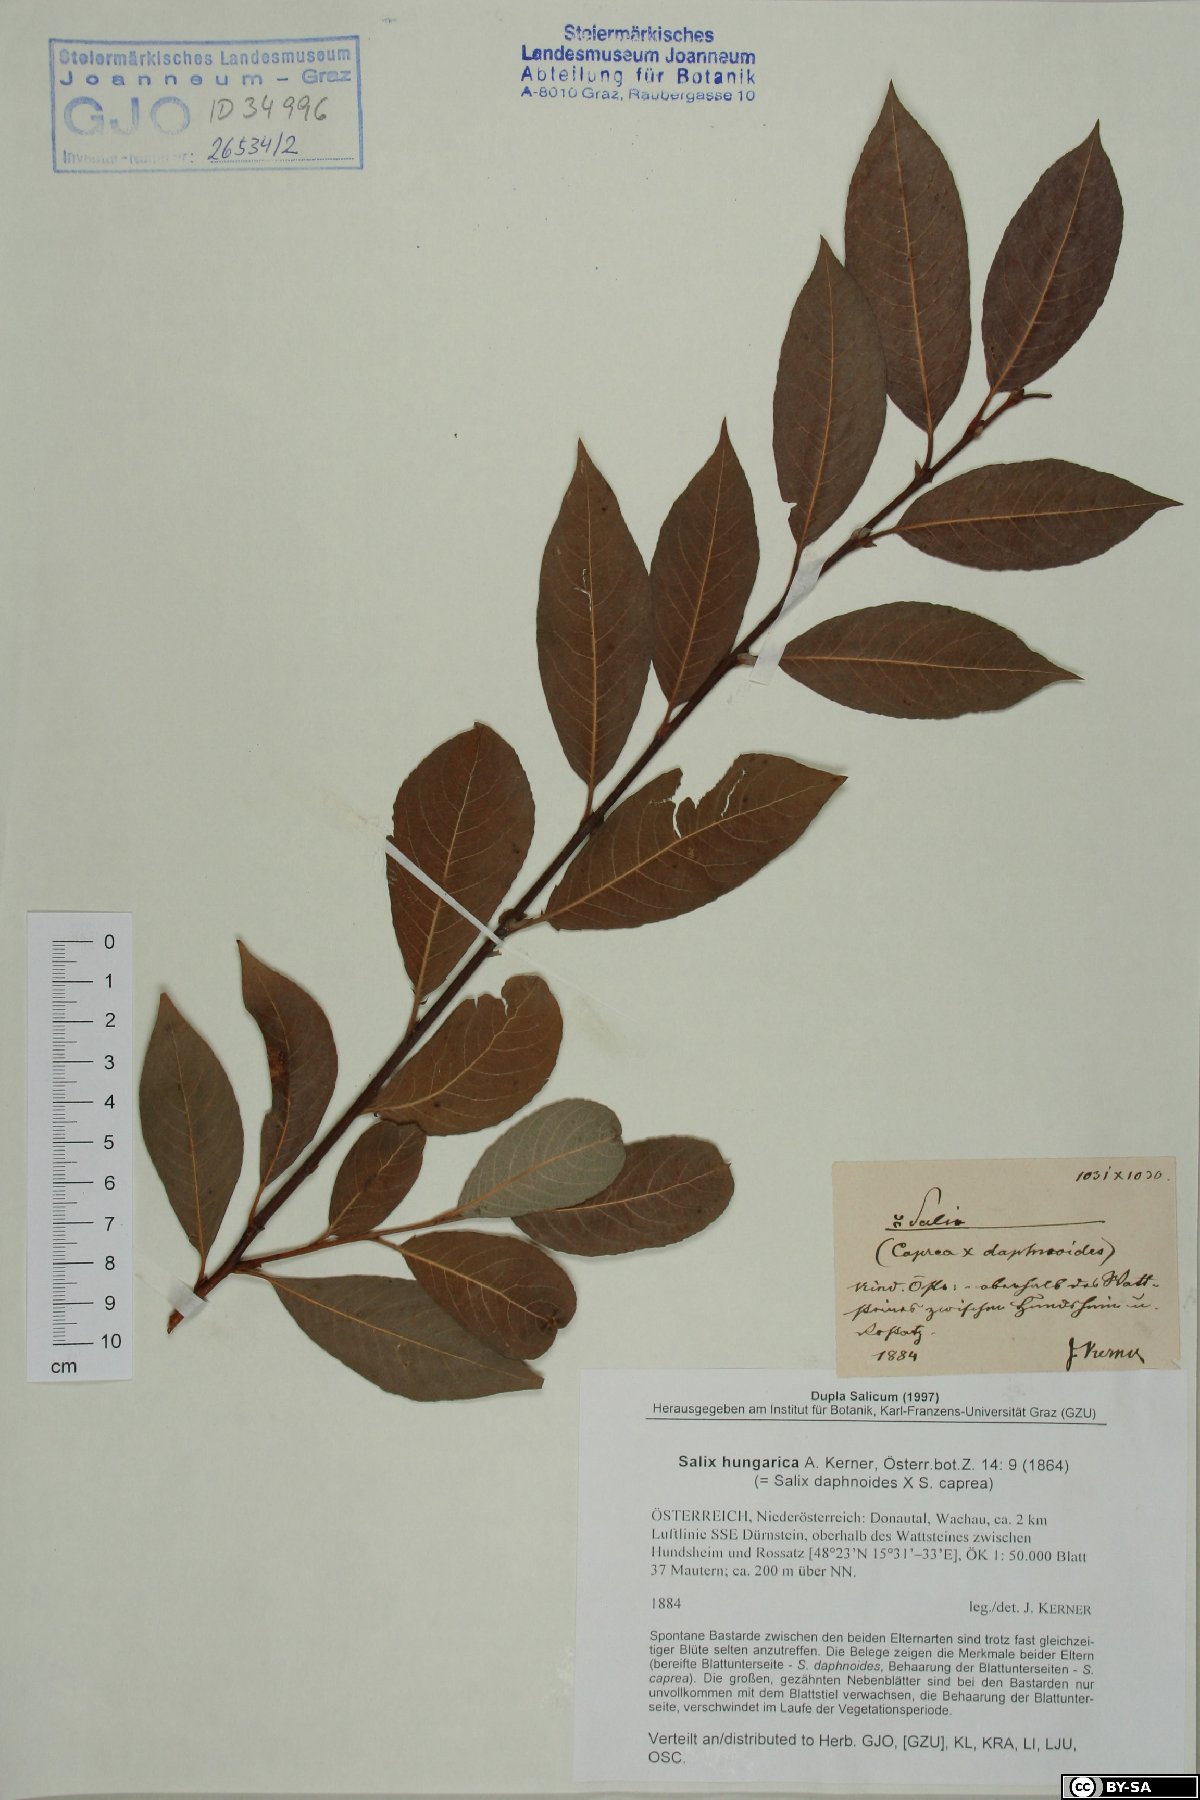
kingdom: Plantae
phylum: Tracheophyta
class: Magnoliopsida
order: Malpighiales
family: Salicaceae
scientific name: Salicaceae
